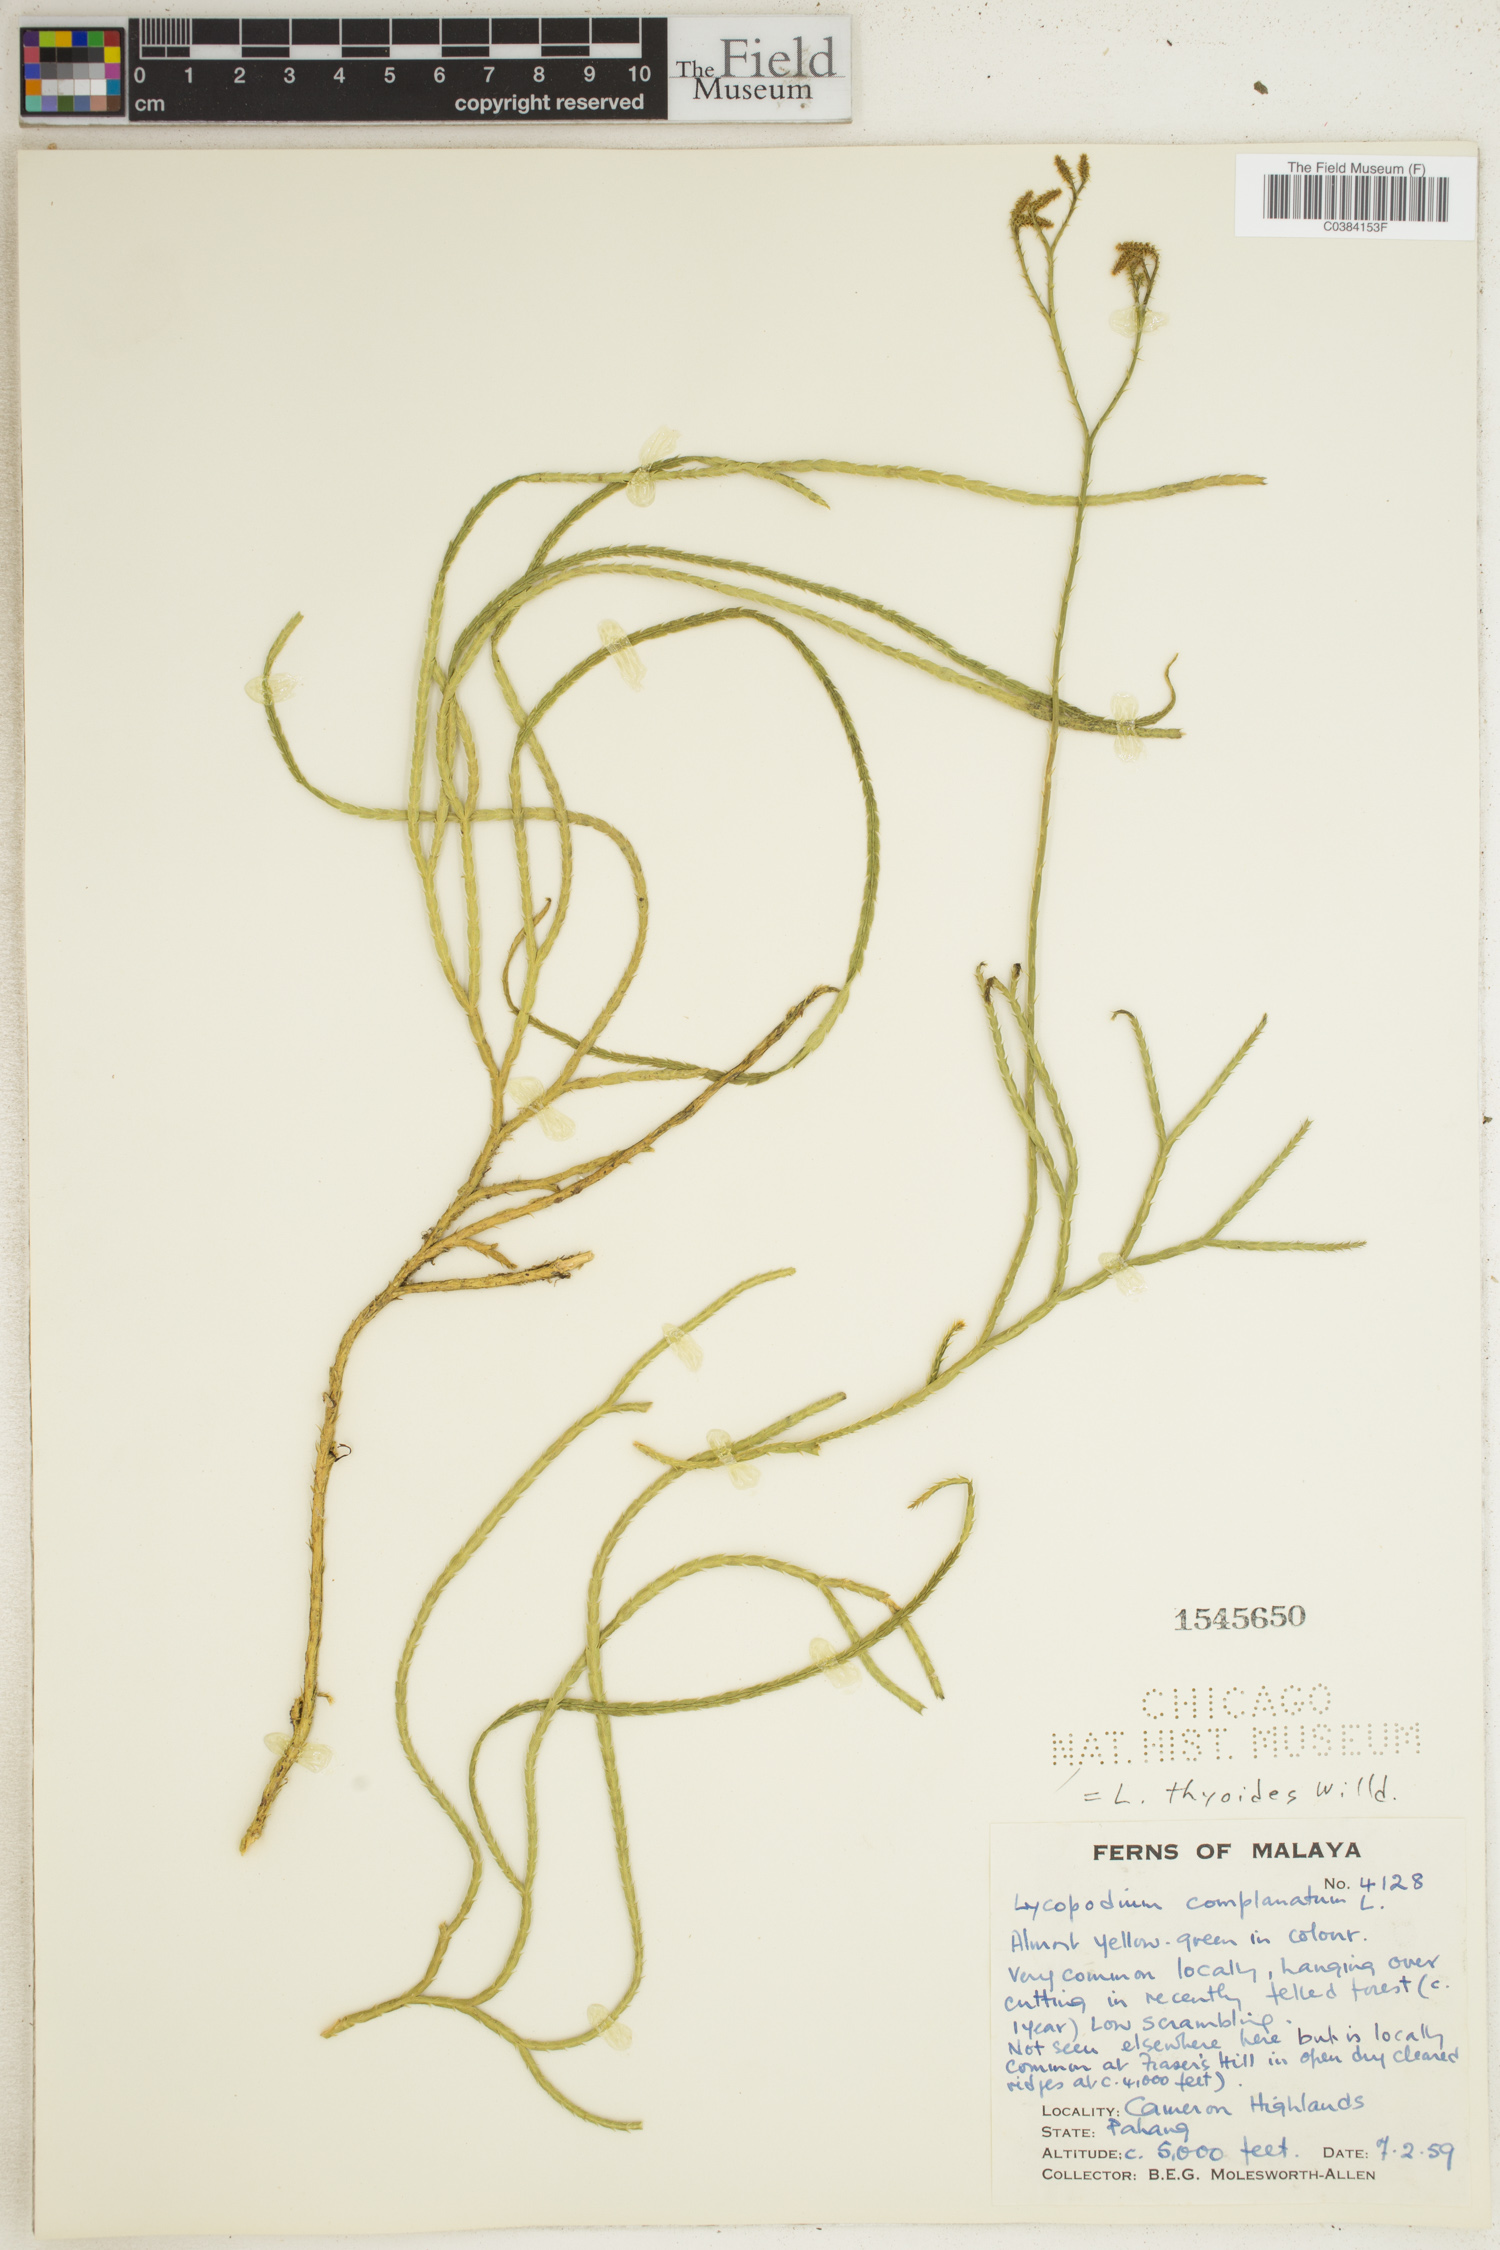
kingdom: Plantae
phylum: Tracheophyta
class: Lycopodiopsida
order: Lycopodiales
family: Lycopodiaceae
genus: Diphasiastrum
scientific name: Diphasiastrum complanatum
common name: Northern running-pine
